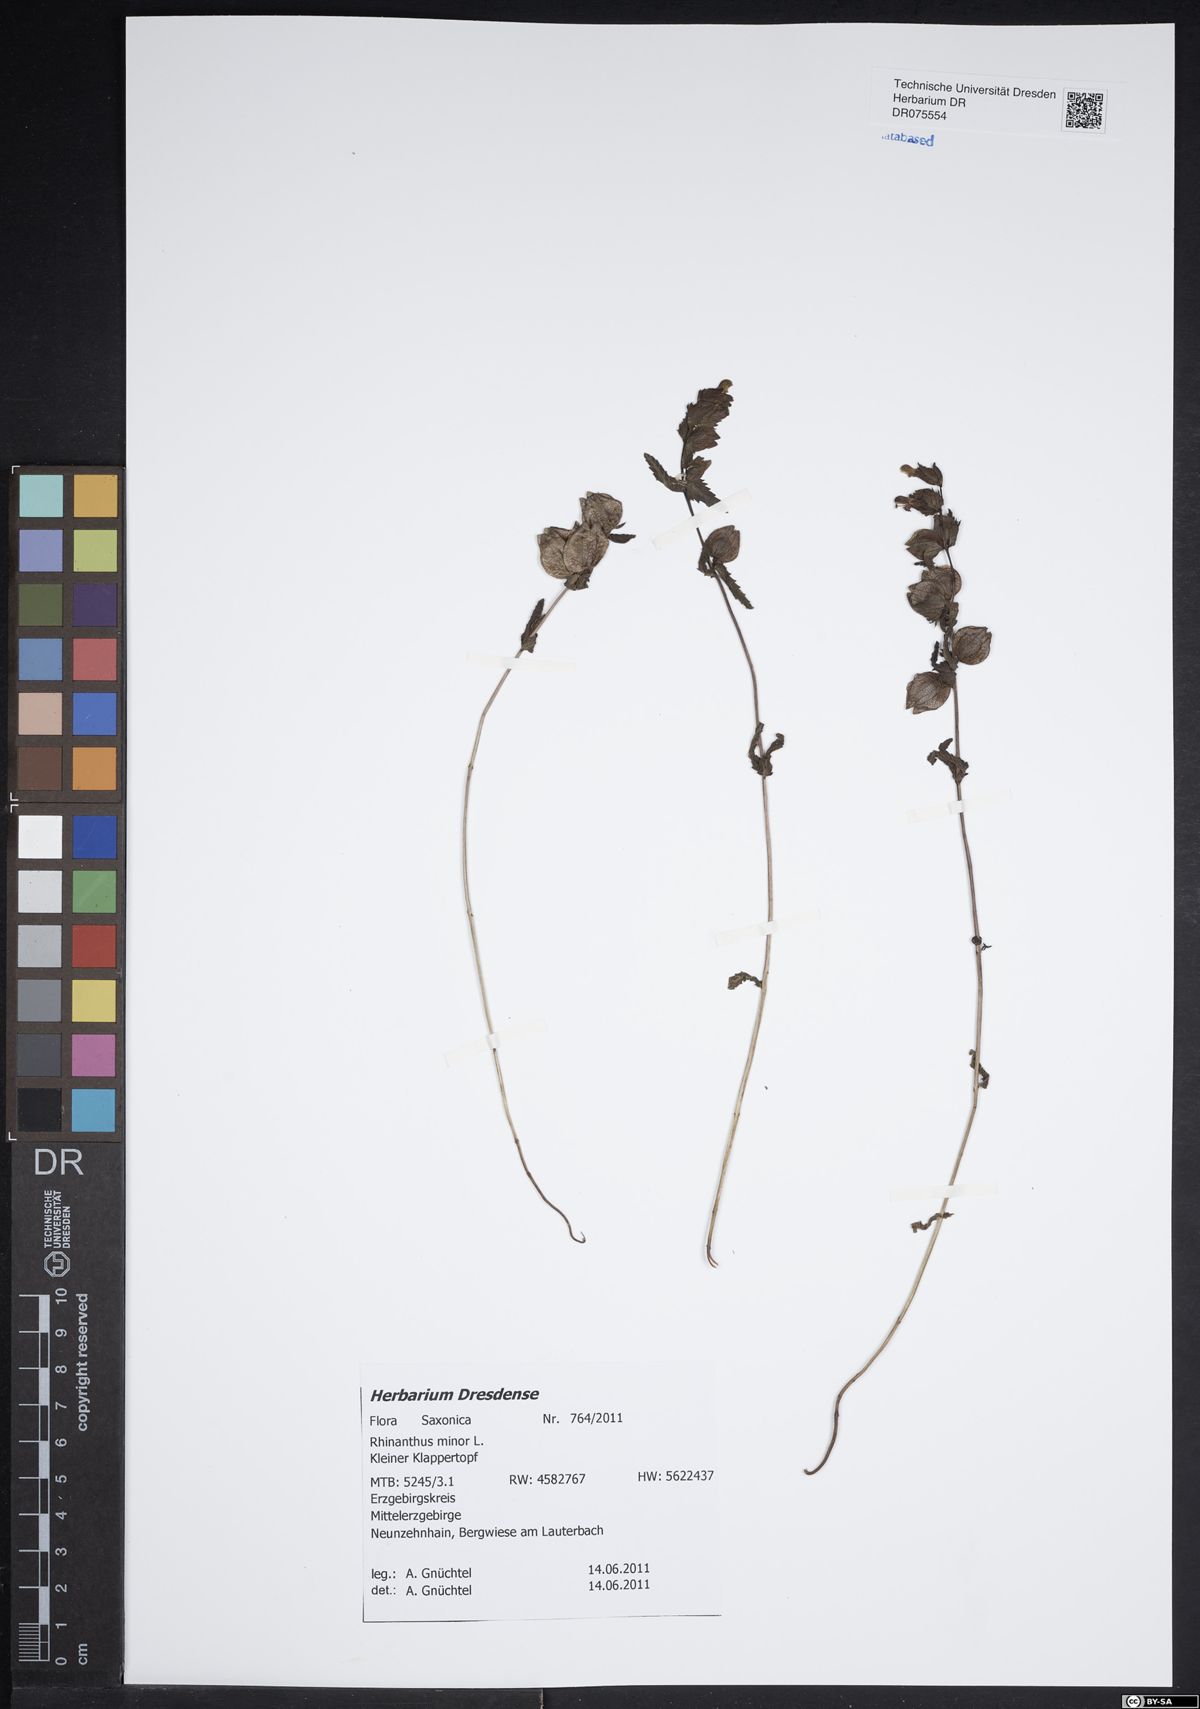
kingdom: Plantae
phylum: Tracheophyta
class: Magnoliopsida
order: Lamiales
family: Orobanchaceae
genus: Rhinanthus
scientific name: Rhinanthus minor
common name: Yellow-rattle
